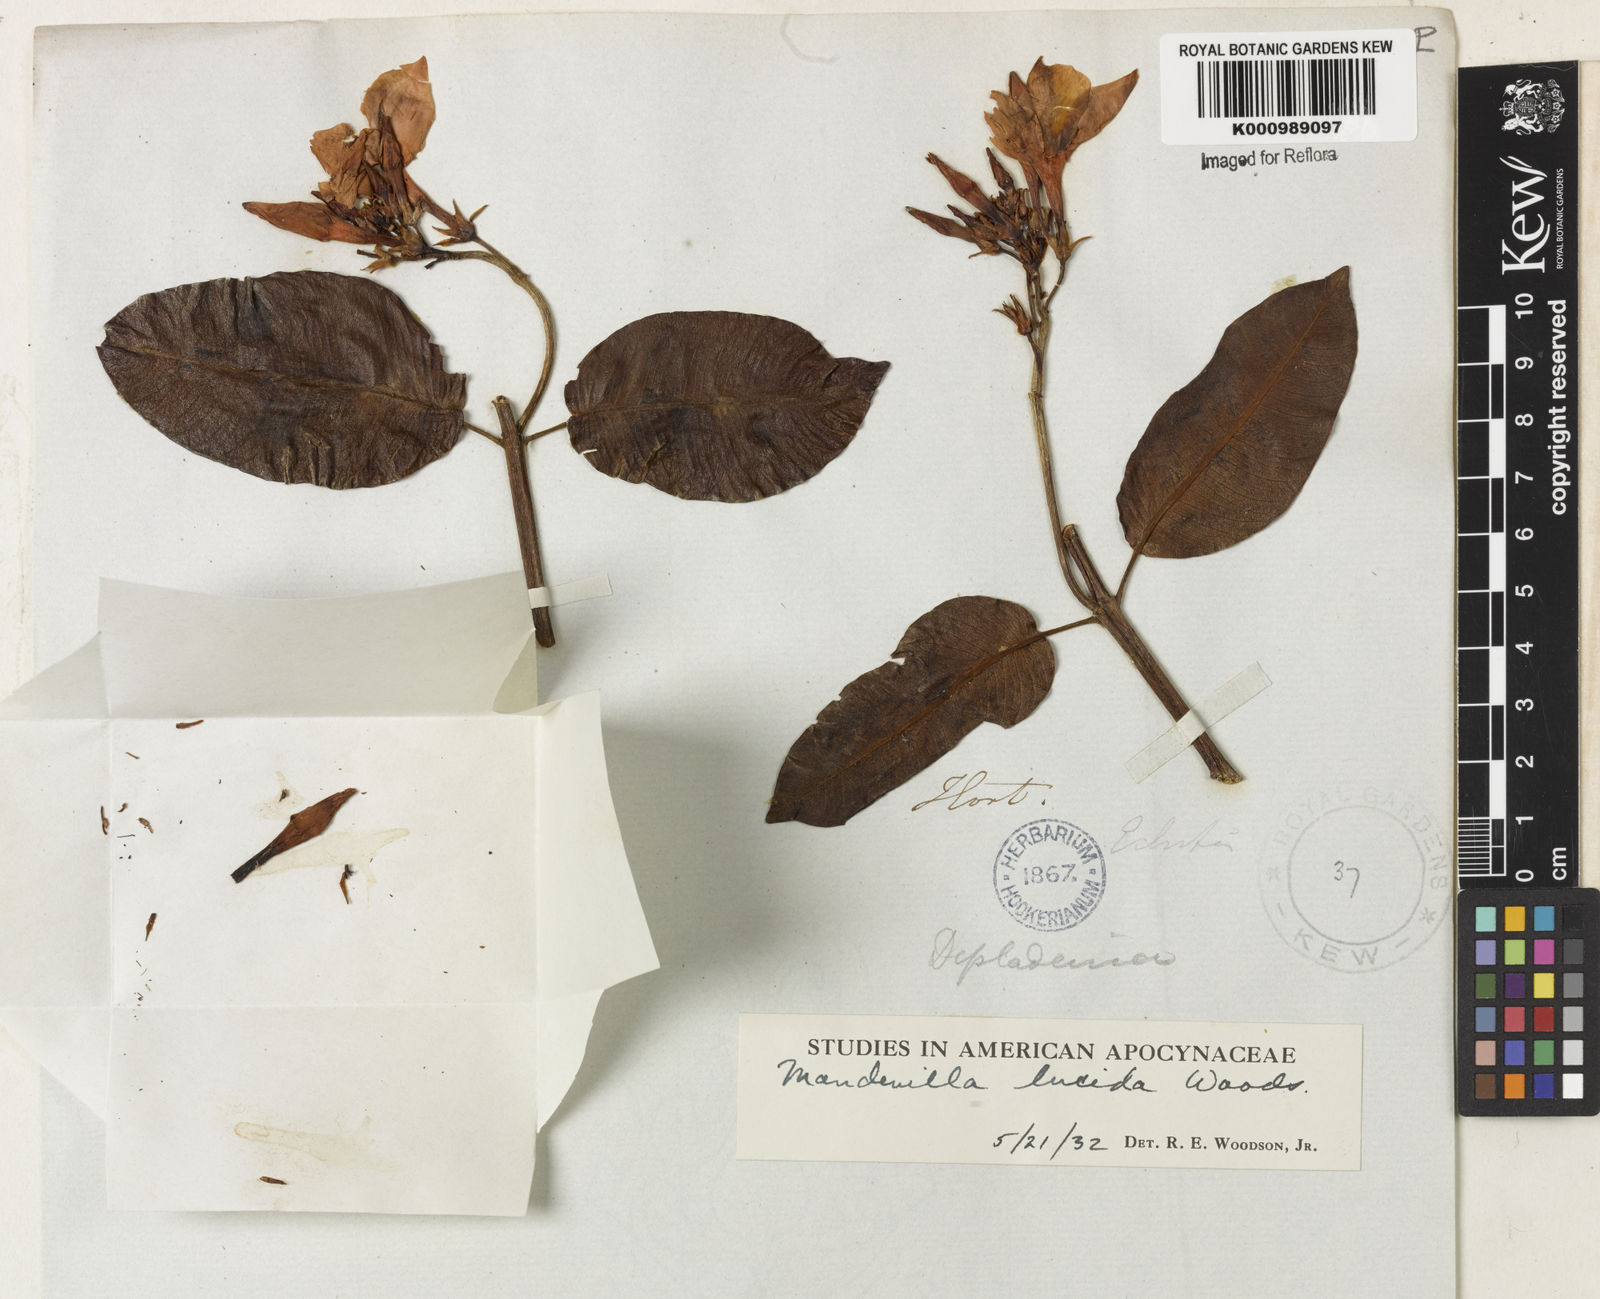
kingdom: Plantae
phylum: Tracheophyta
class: Magnoliopsida
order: Gentianales
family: Apocynaceae
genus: Mandevilla
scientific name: Mandevilla lucida
